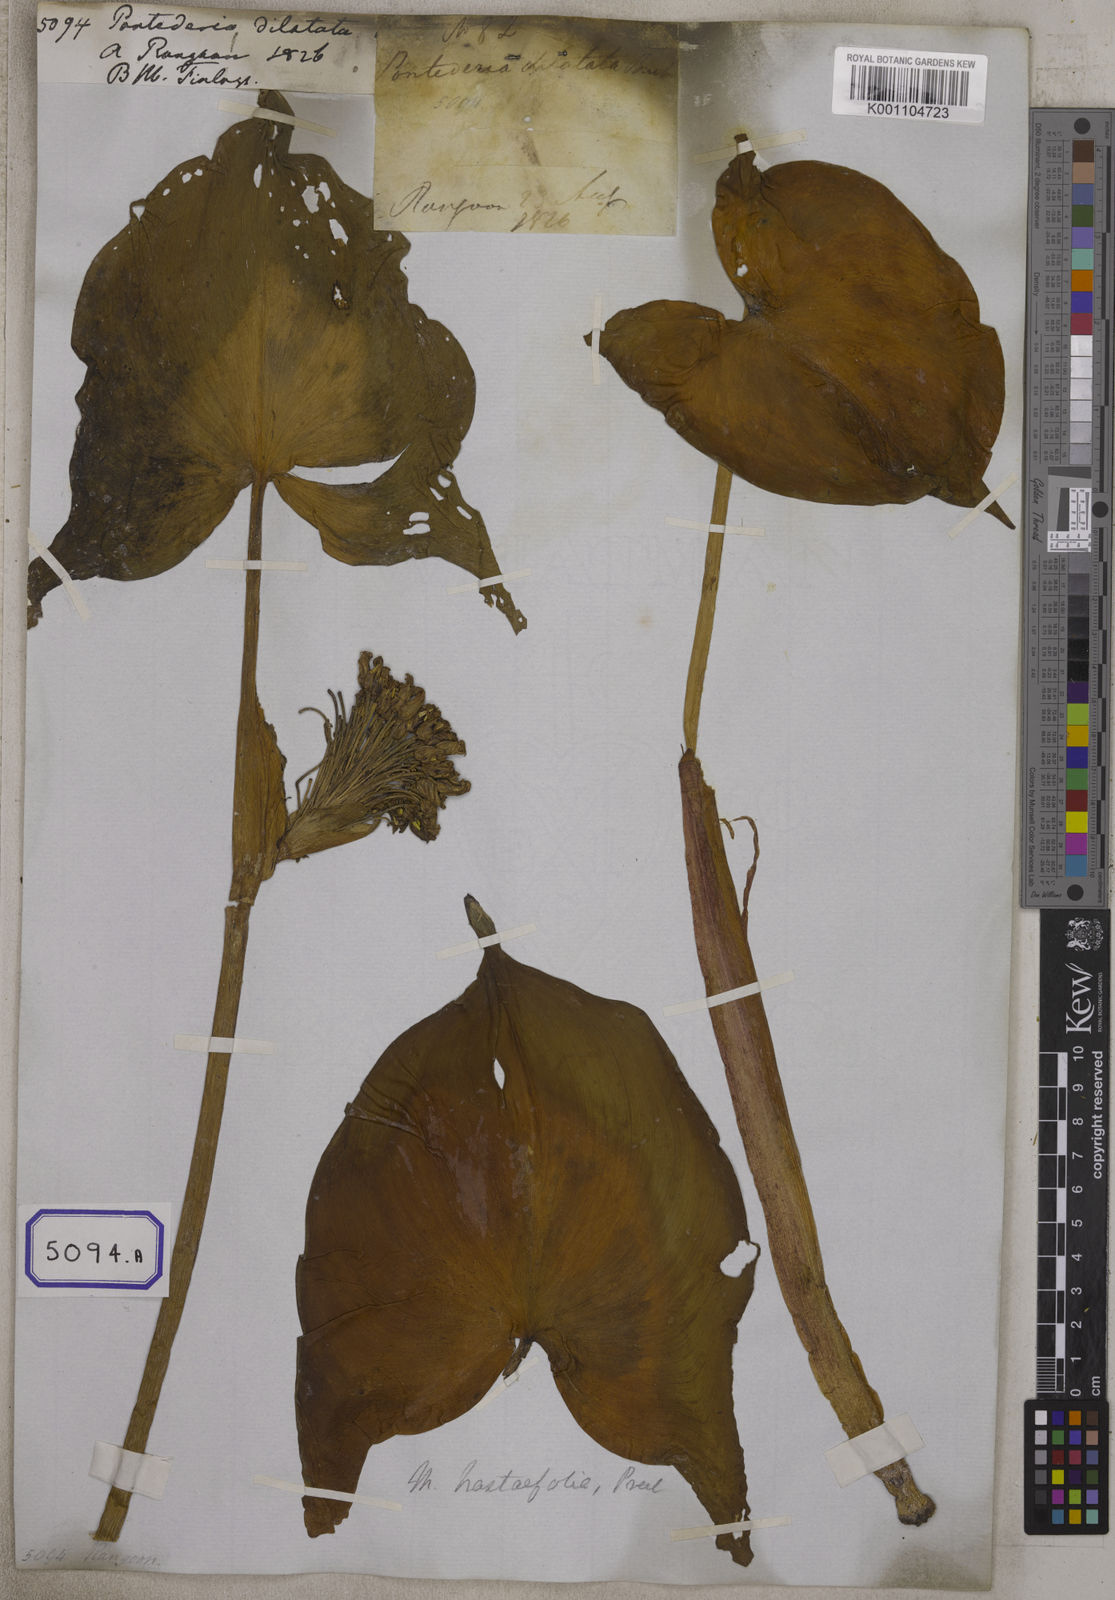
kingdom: Plantae
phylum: Tracheophyta
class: Liliopsida
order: Commelinales
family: Pontederiaceae
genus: Pontederia
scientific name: Pontederia
